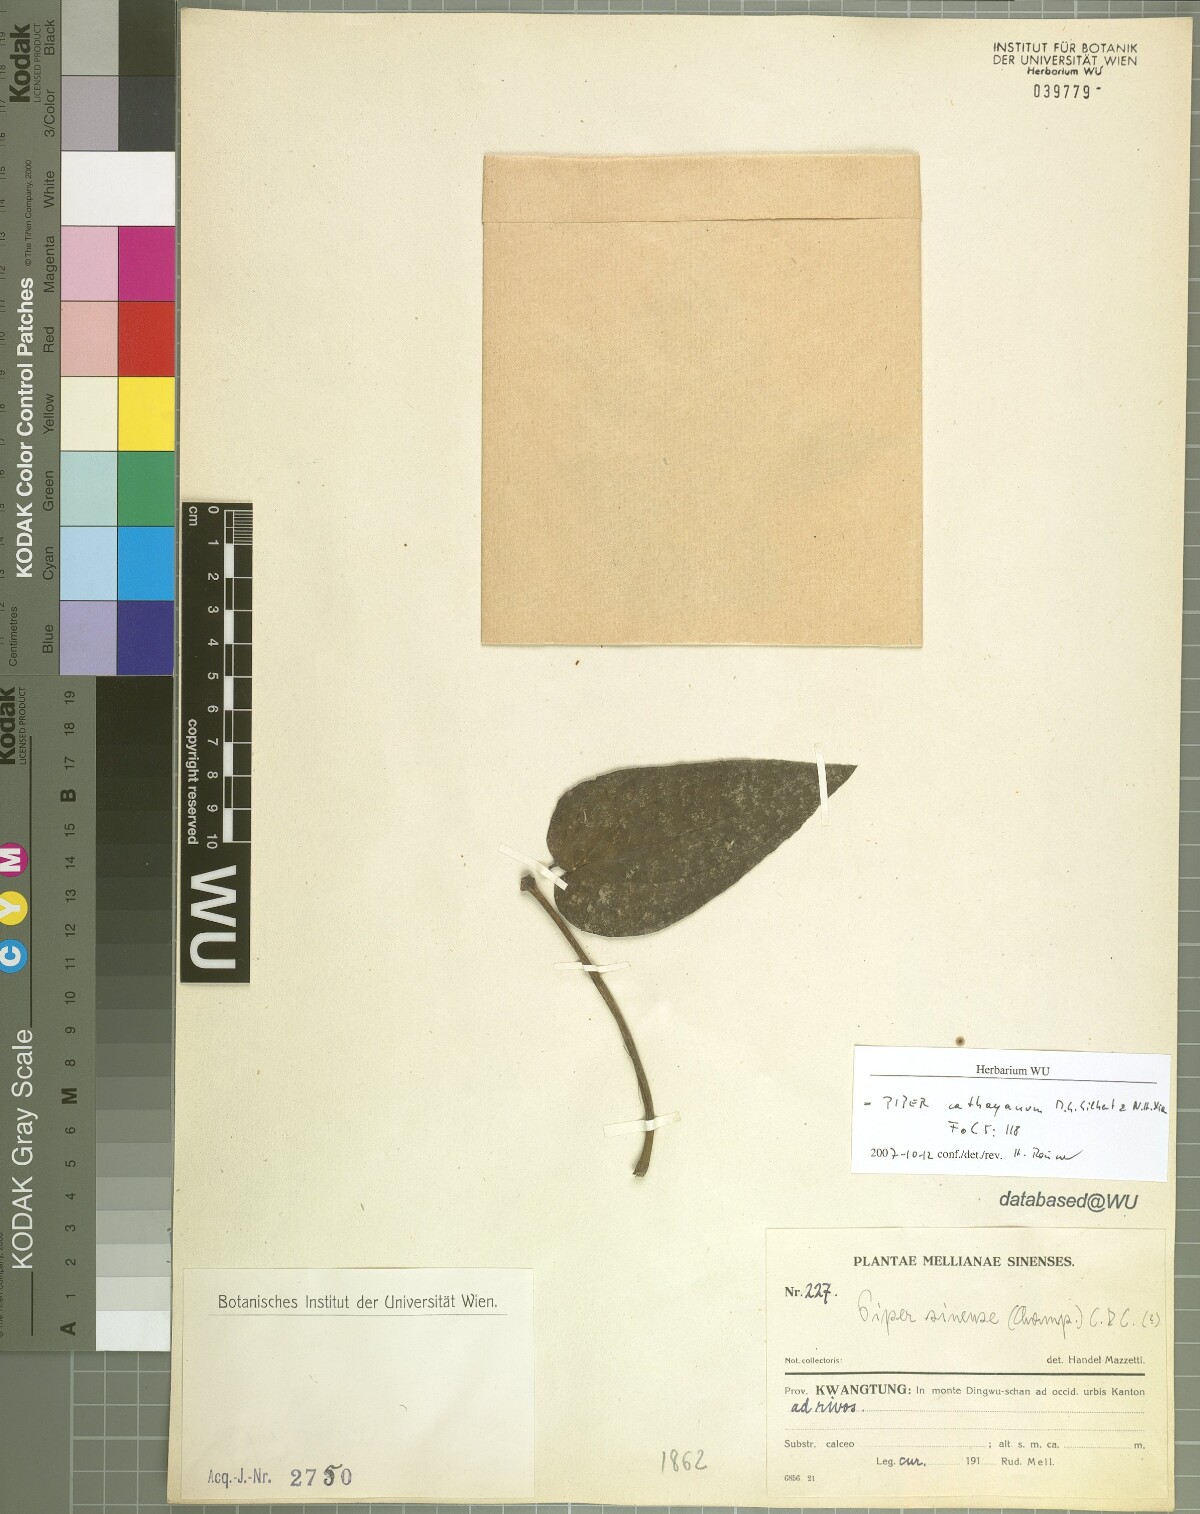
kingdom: Plantae
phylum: Tracheophyta
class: Magnoliopsida
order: Piperales
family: Piperaceae
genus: Piper
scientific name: Piper cathayanum
